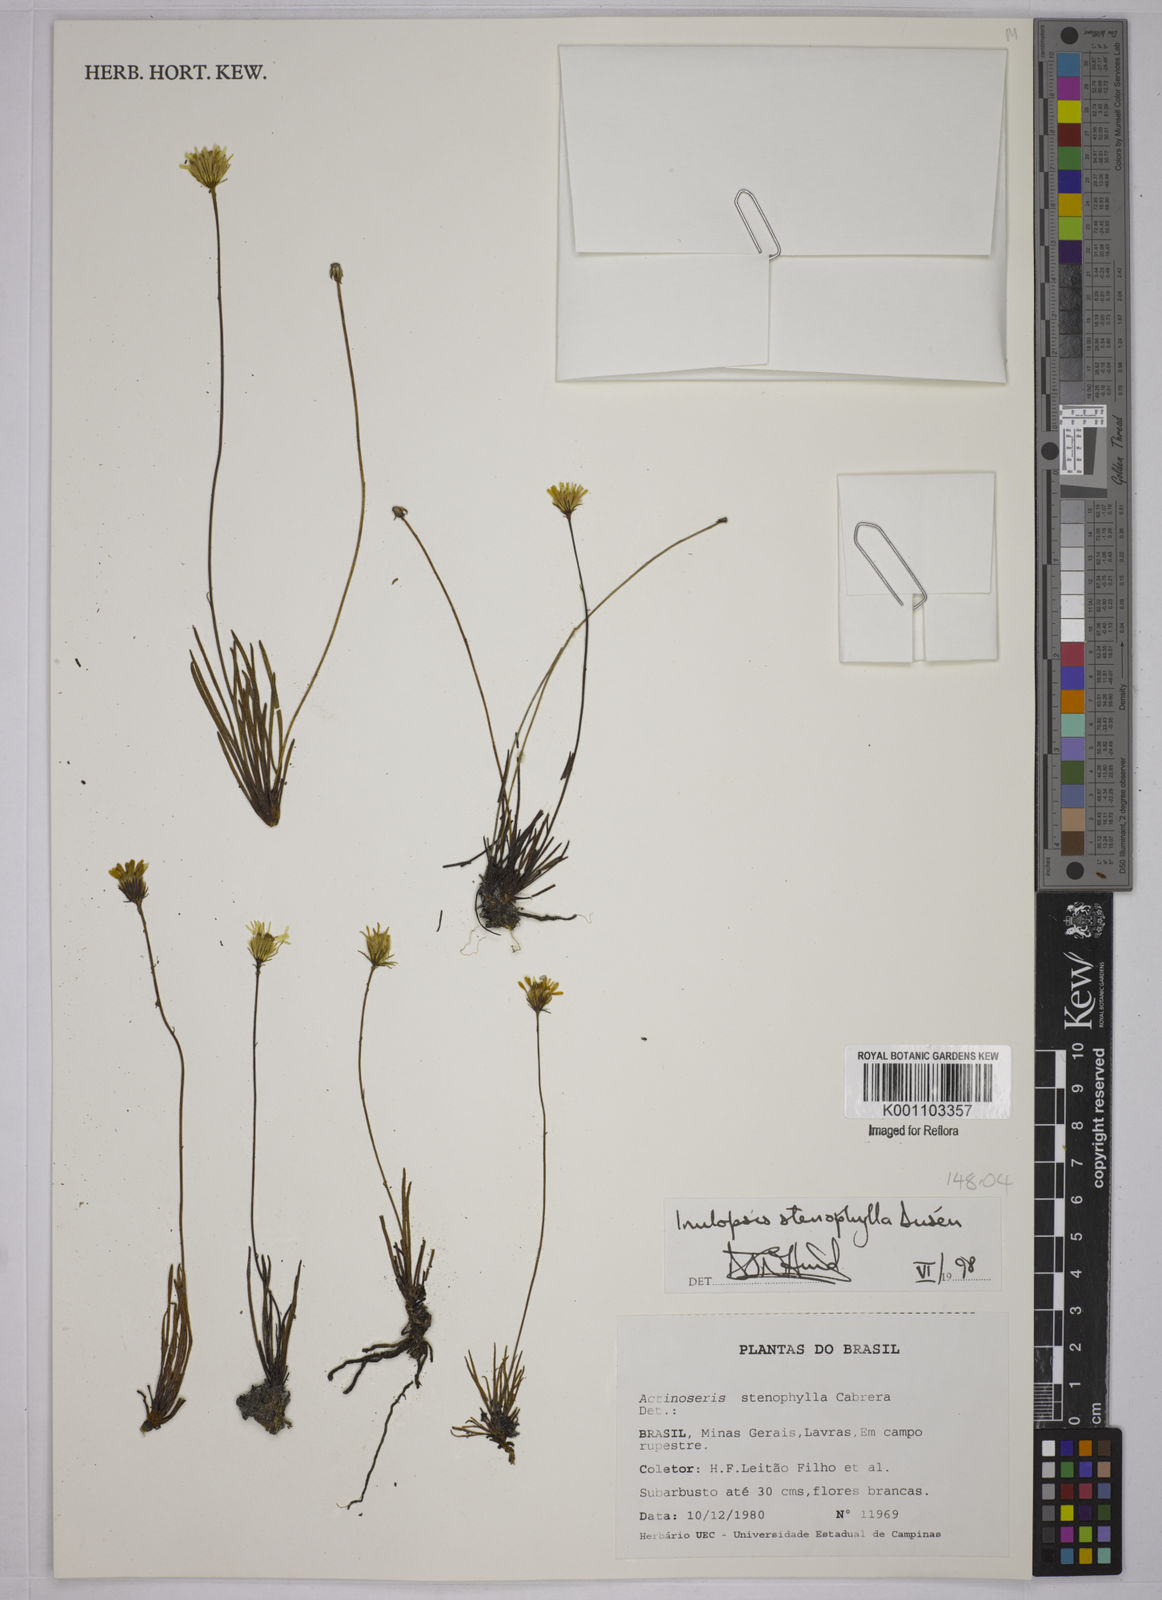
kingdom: Plantae
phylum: Tracheophyta
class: Magnoliopsida
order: Asterales
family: Asteraceae
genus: Inulopsis
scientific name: Inulopsis
